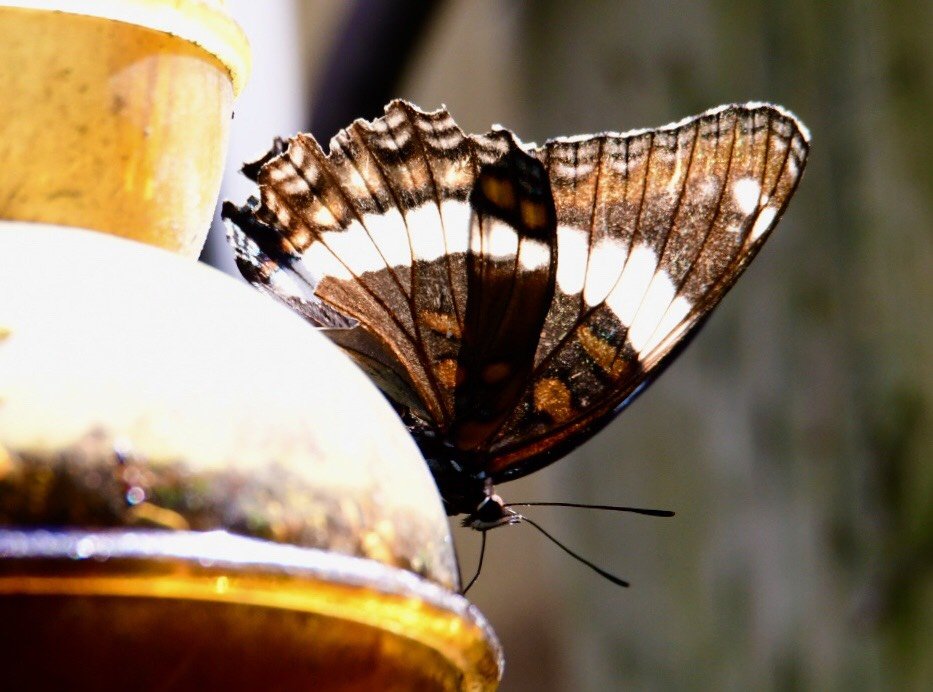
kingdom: Animalia
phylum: Arthropoda
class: Insecta
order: Lepidoptera
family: Nymphalidae
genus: Limenitis
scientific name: Limenitis arthemis
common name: Red-spotted Admiral
